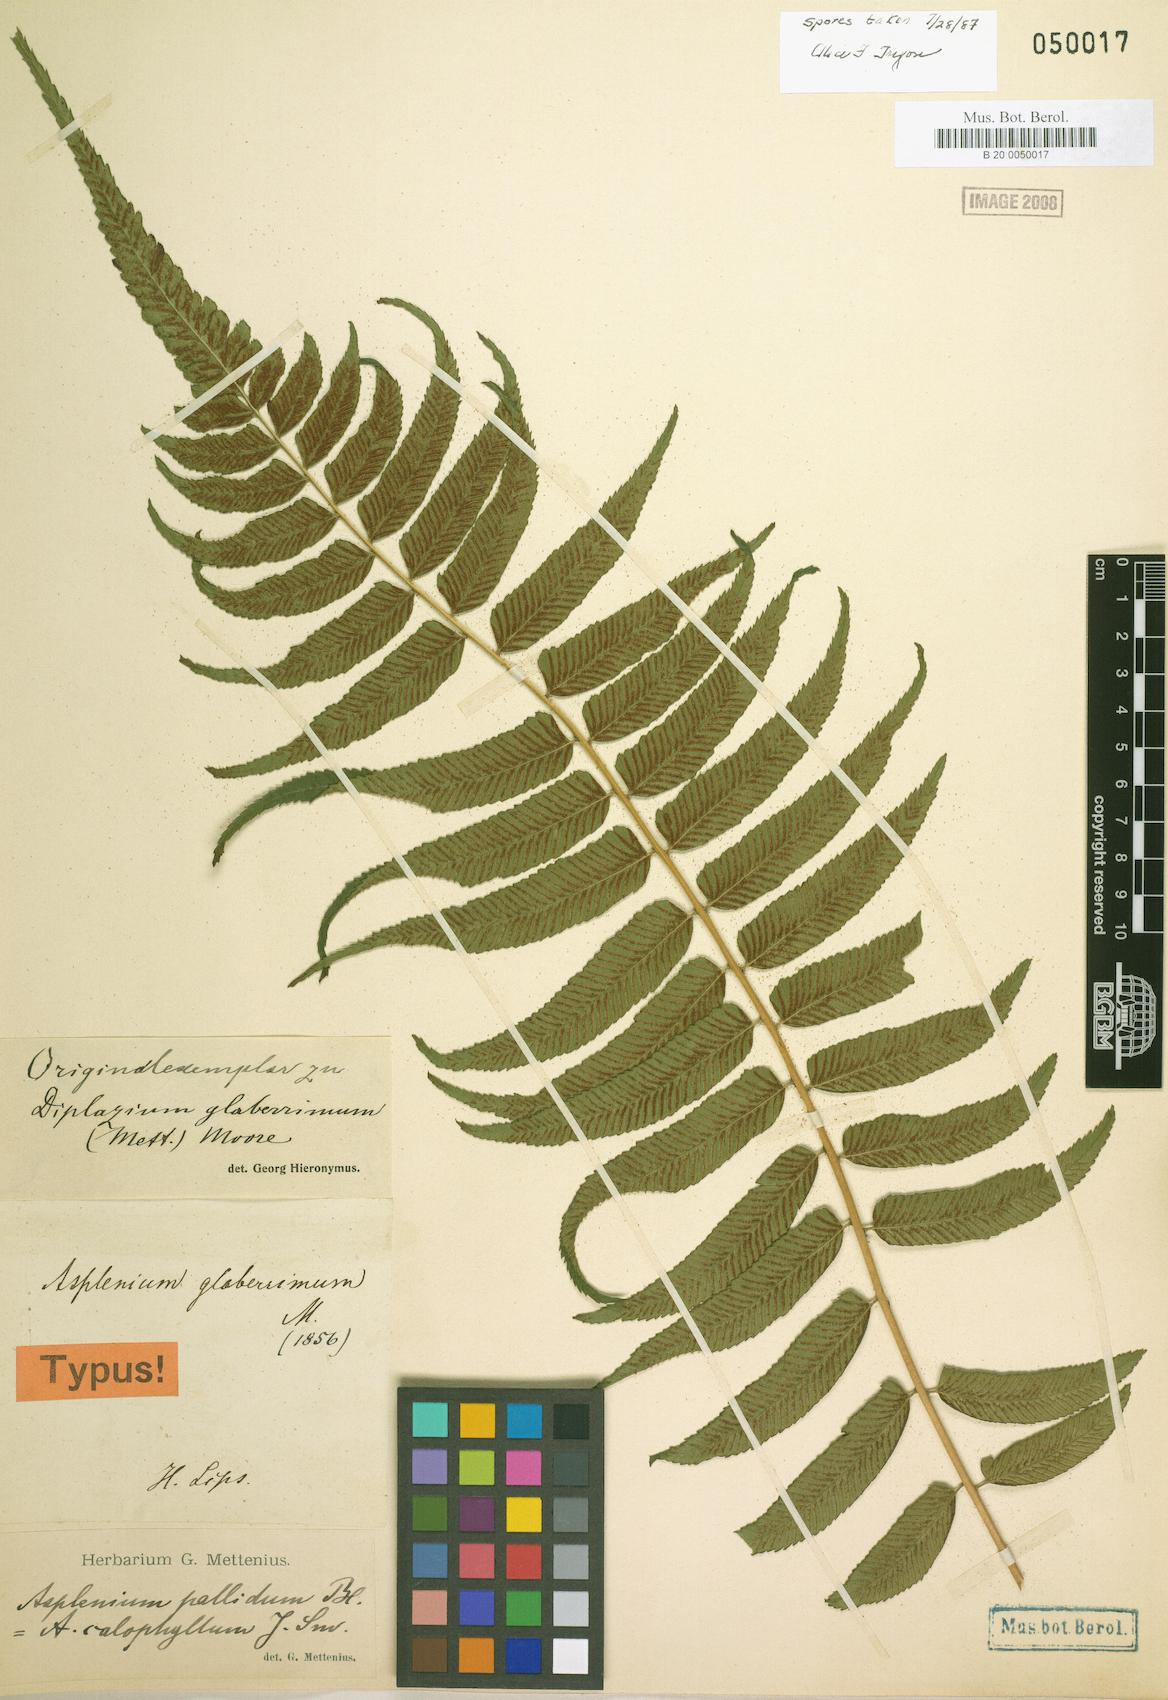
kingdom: Plantae
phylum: Tracheophyta
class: Polypodiopsida
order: Polypodiales
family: Athyriaceae
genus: Diplazium
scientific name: Diplazium pallidum
